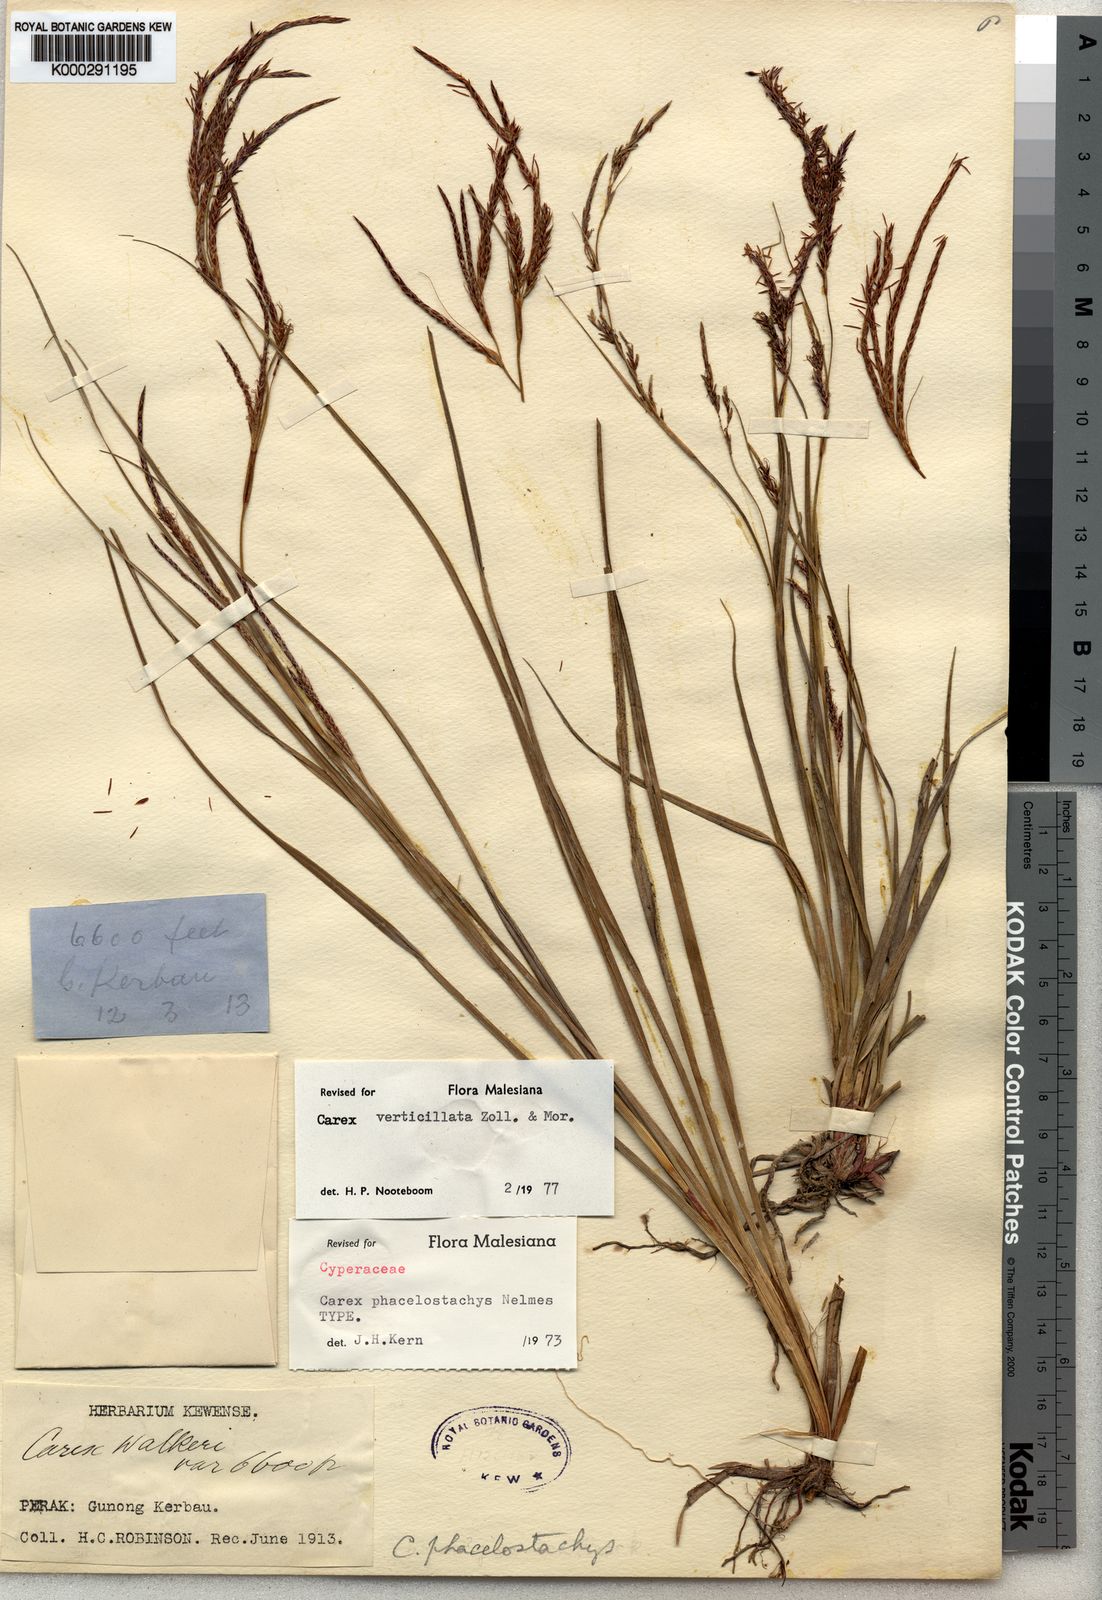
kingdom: Plantae
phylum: Tracheophyta
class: Liliopsida
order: Poales
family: Cyperaceae
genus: Carex
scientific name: Carex verticillata
